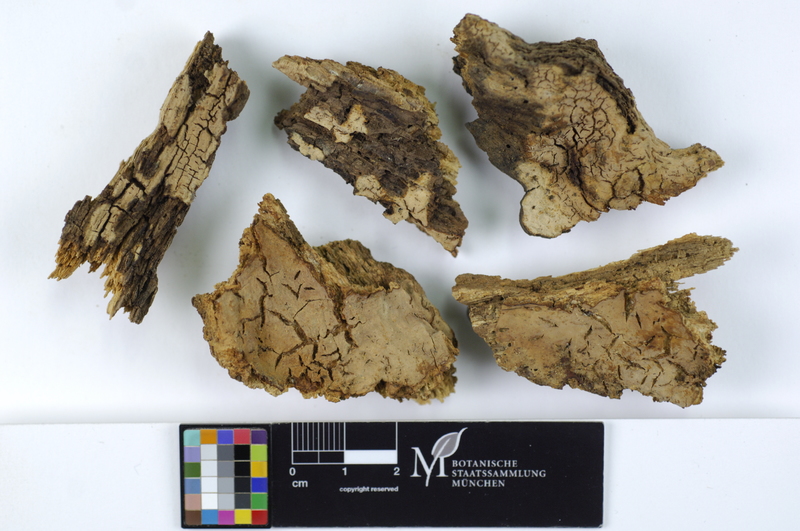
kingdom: Plantae
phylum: Tracheophyta
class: Magnoliopsida
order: Fagales
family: Fagaceae
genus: Quercus
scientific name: Quercus petraea
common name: Sessile oak
